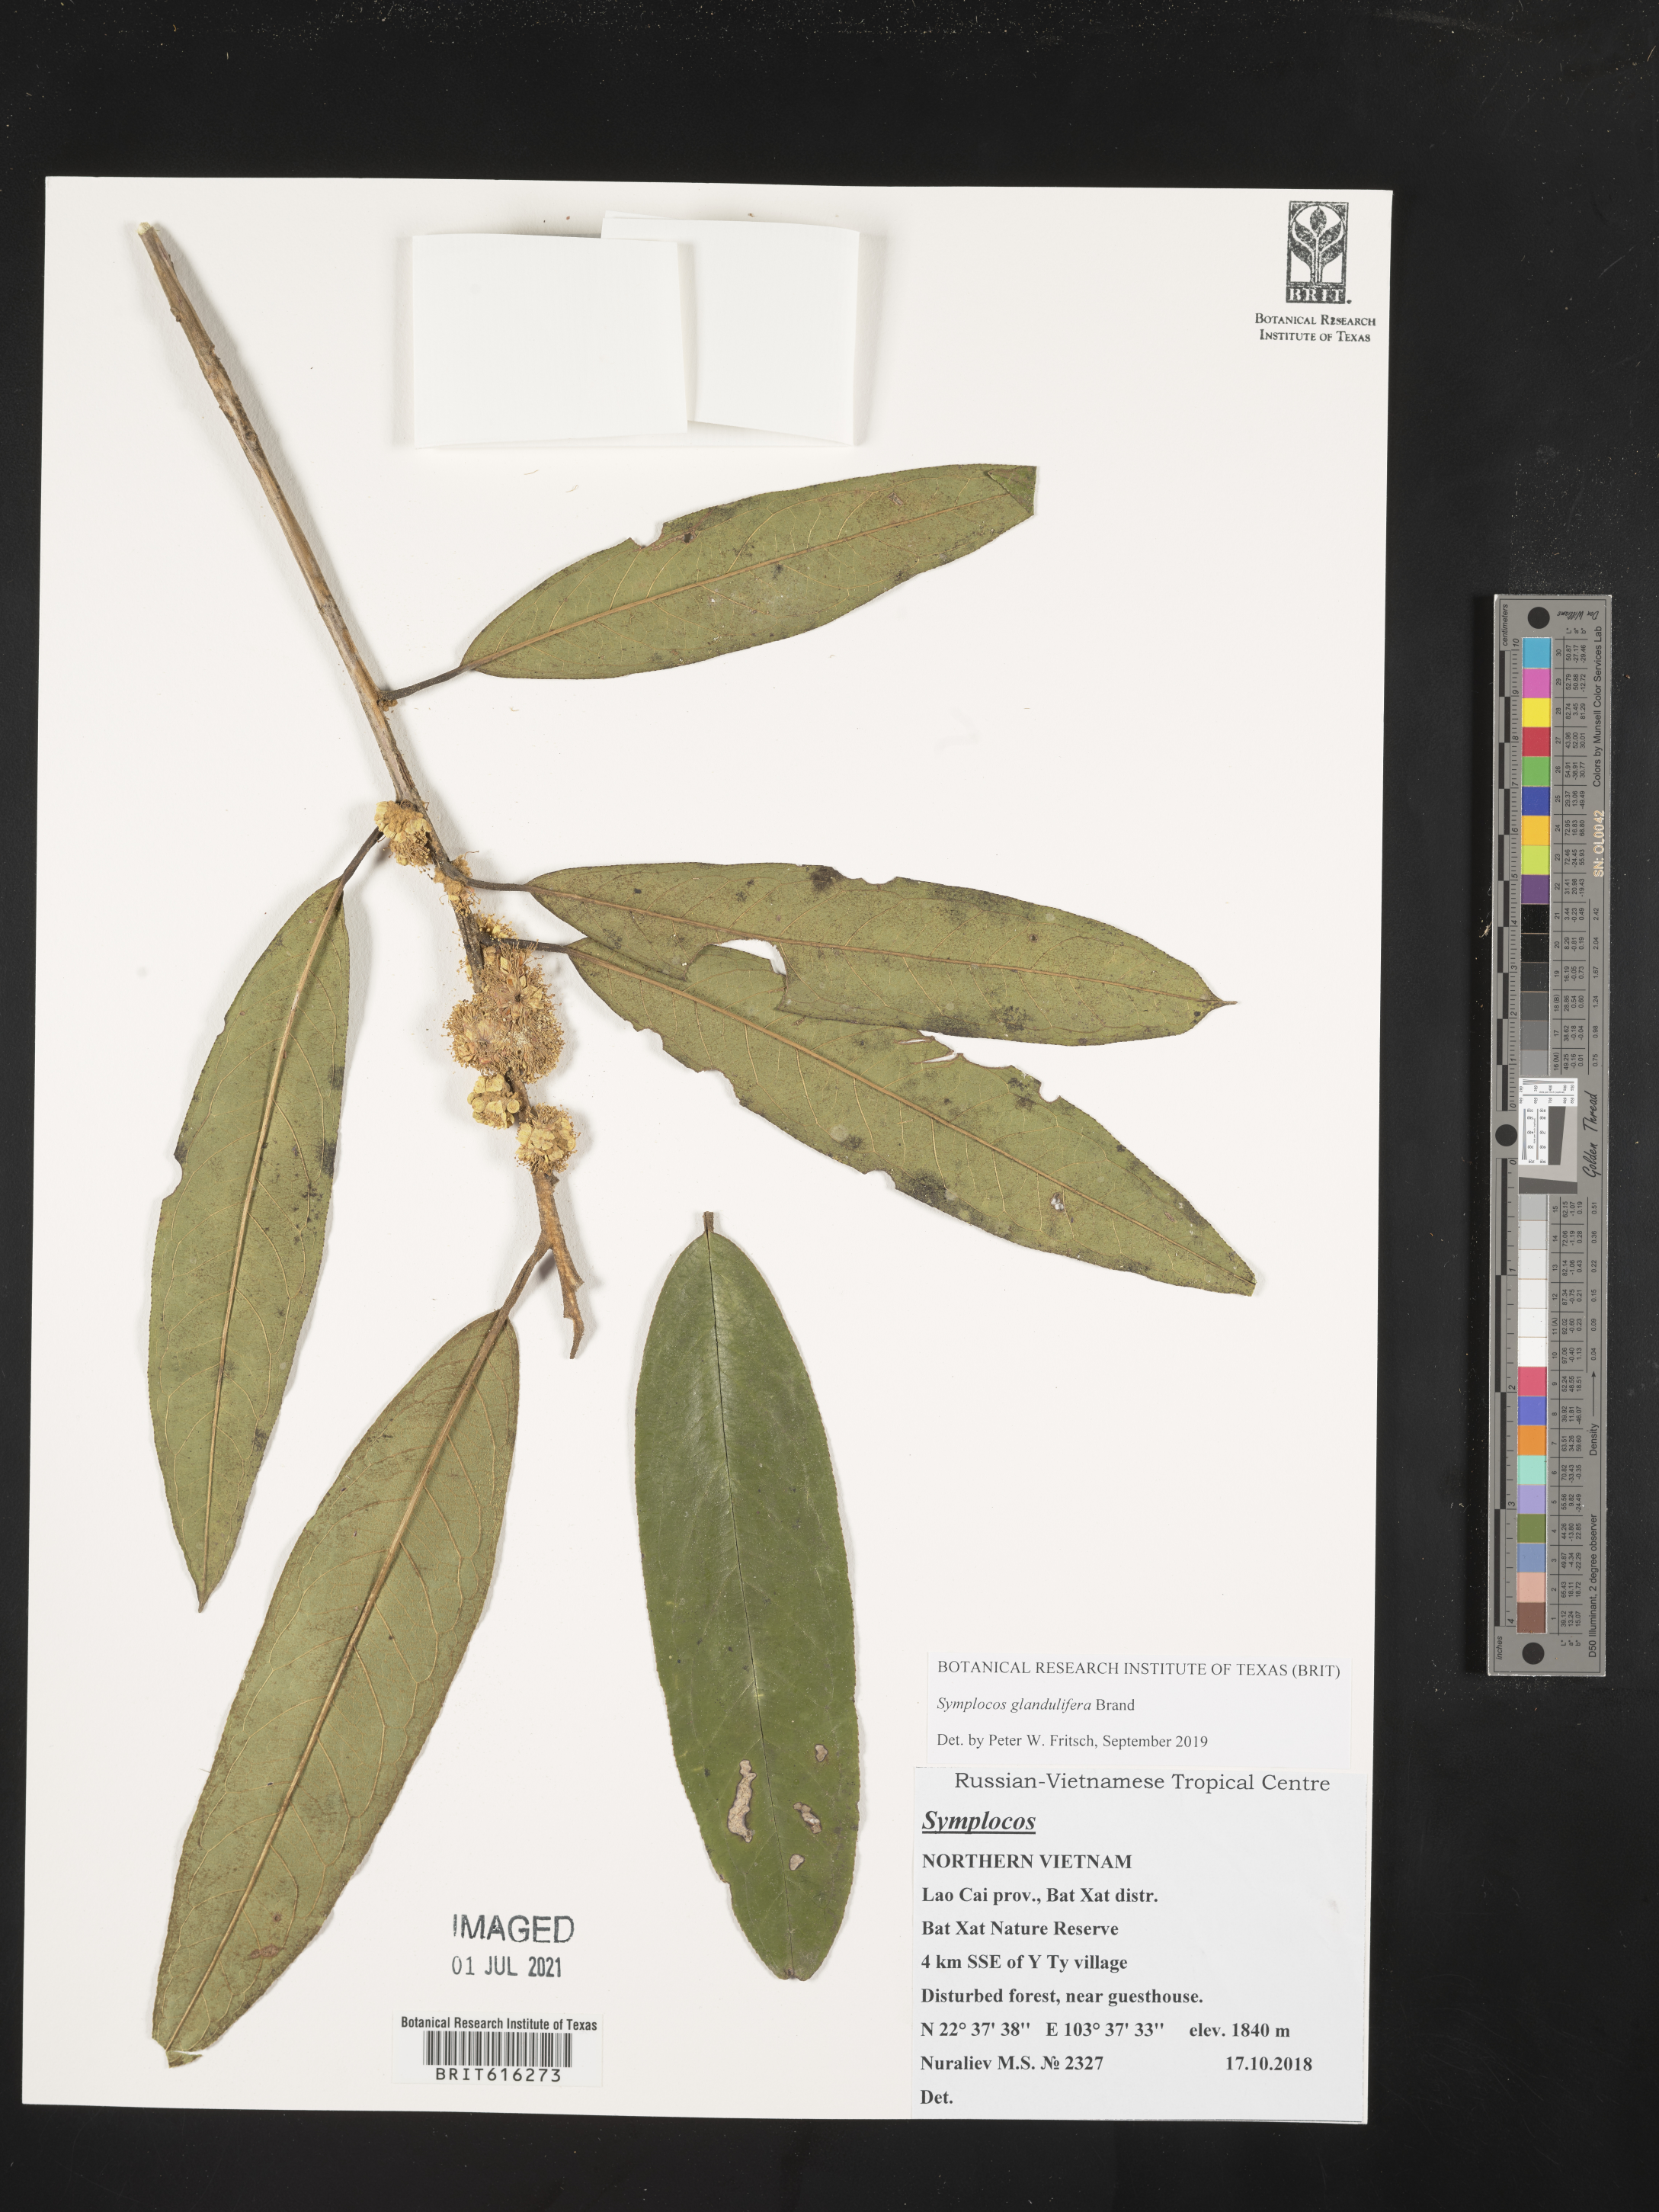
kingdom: Plantae
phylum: Tracheophyta
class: Magnoliopsida
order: Ericales
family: Symplocaceae
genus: Symplocos
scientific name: Symplocos glandulifera
